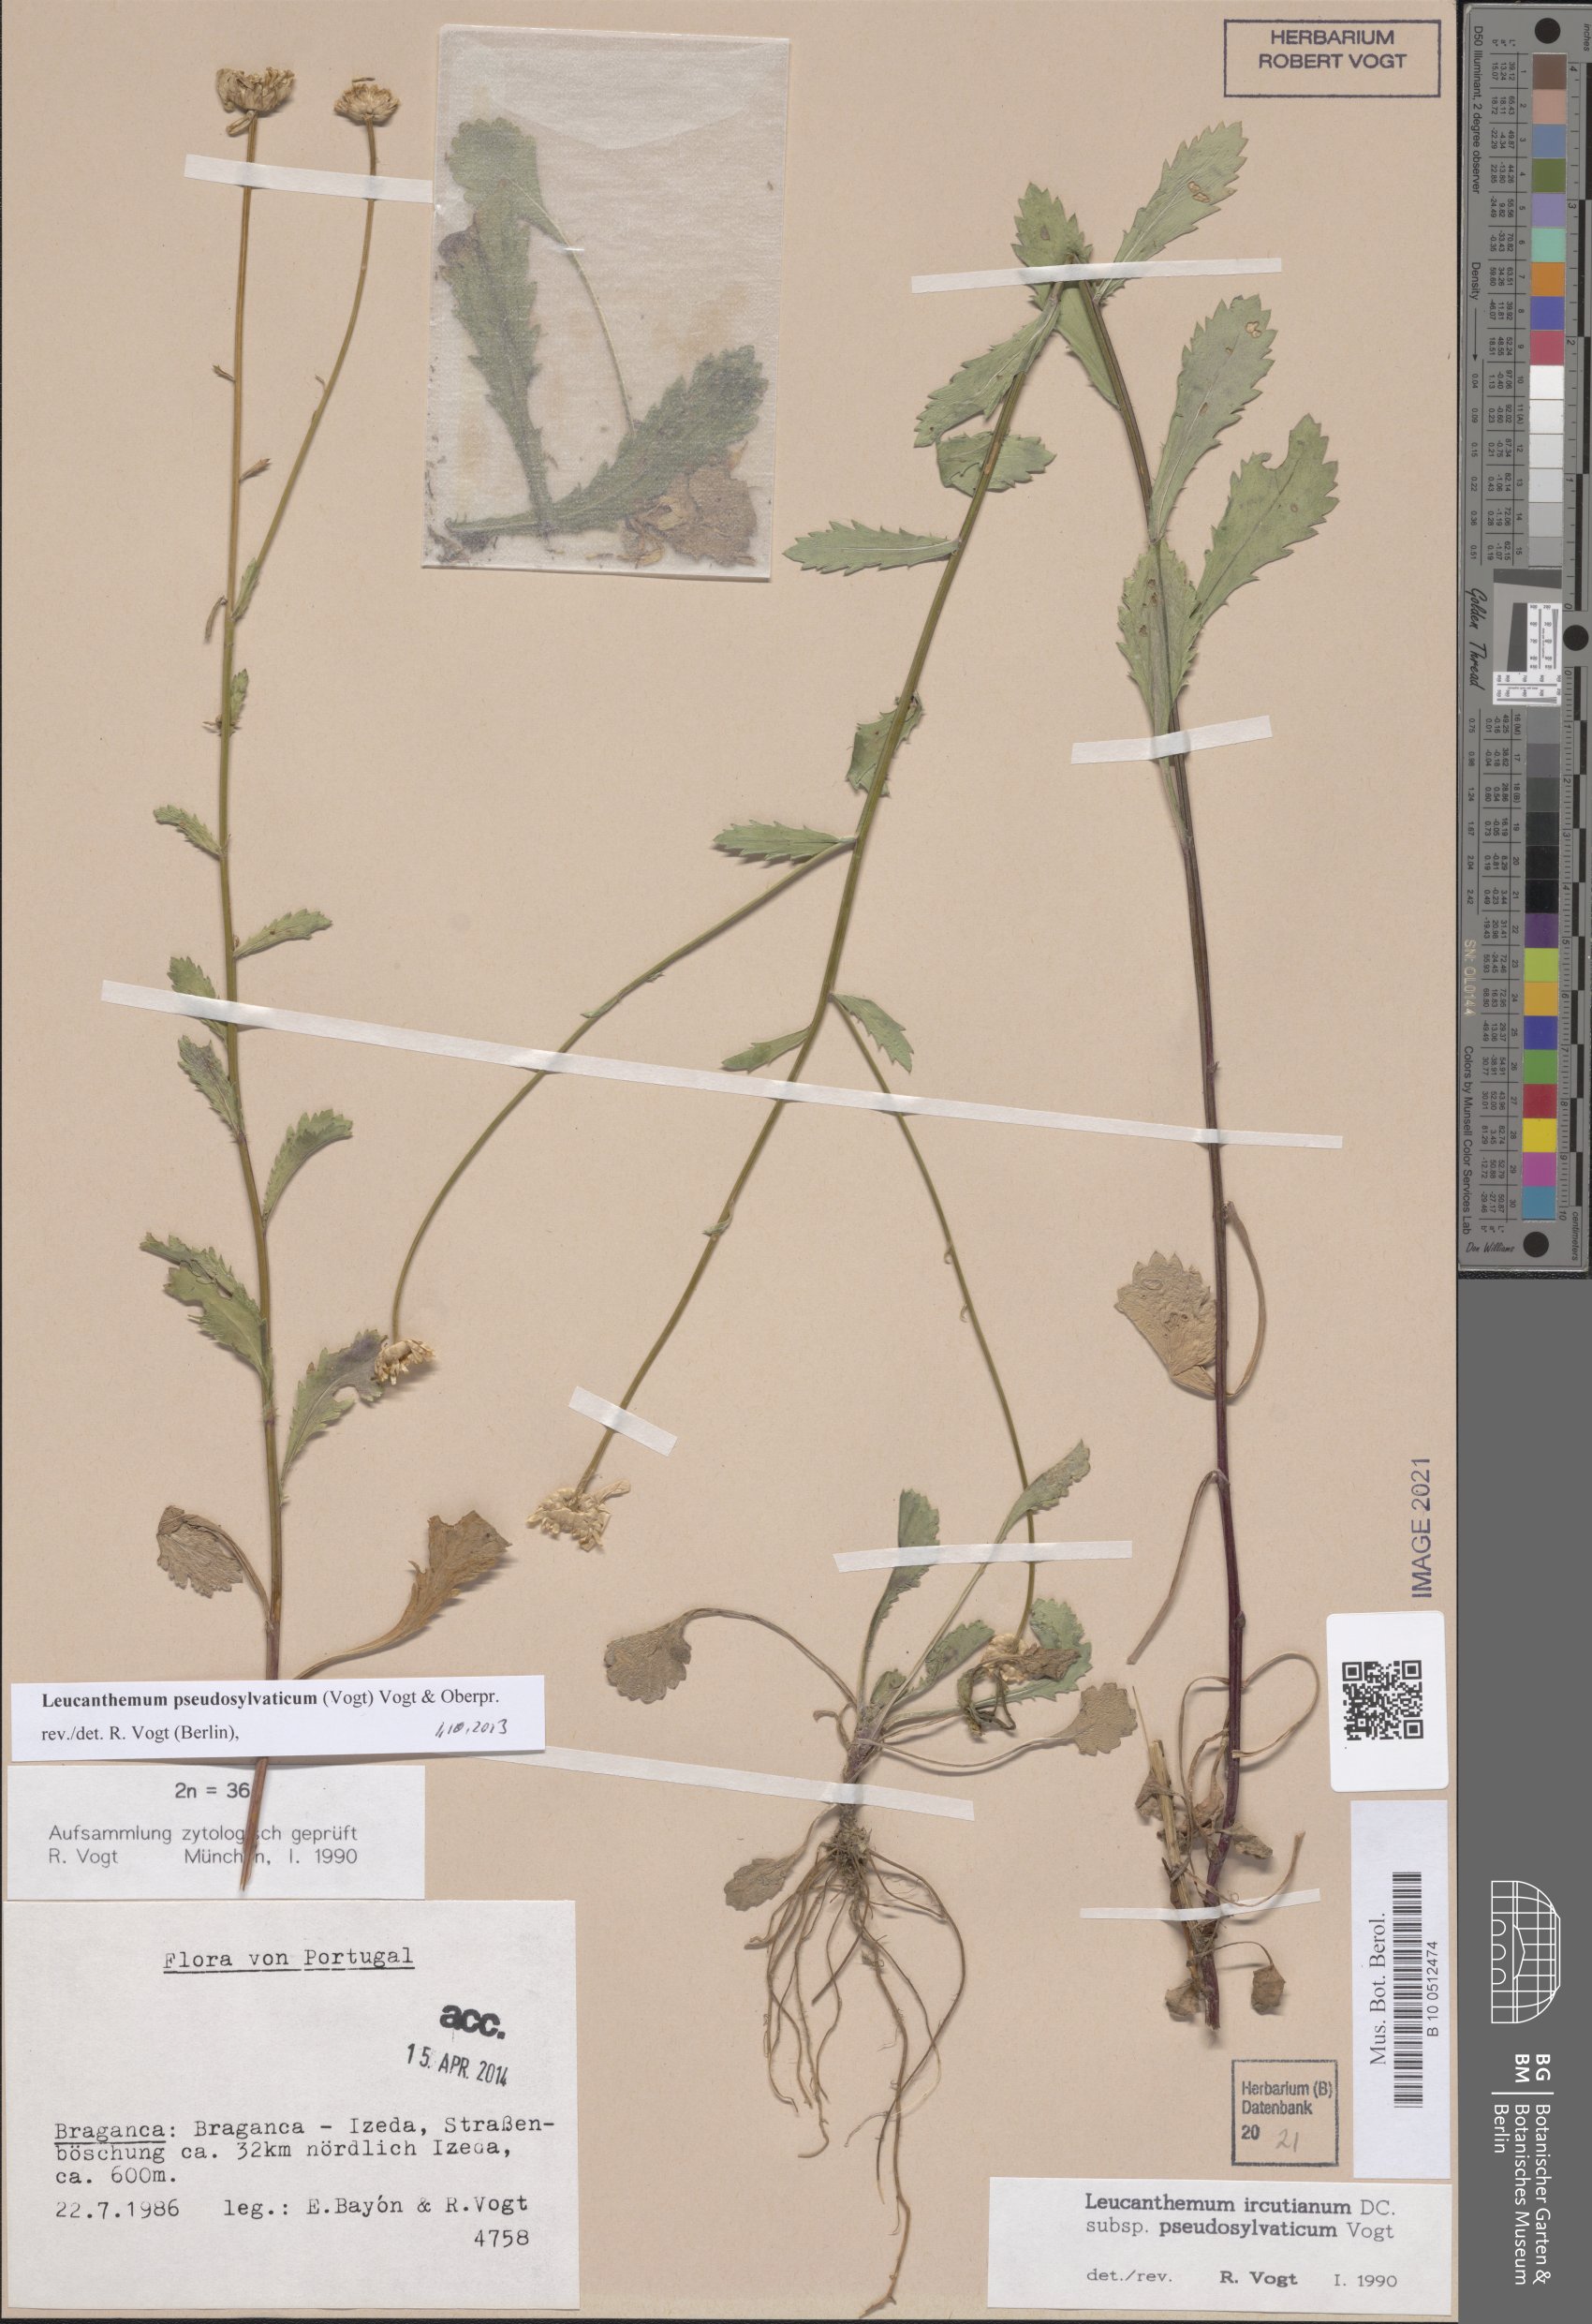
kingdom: Plantae
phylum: Tracheophyta
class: Magnoliopsida
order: Asterales
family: Asteraceae
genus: Leucanthemum
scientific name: Leucanthemum pseudosylvaticum
